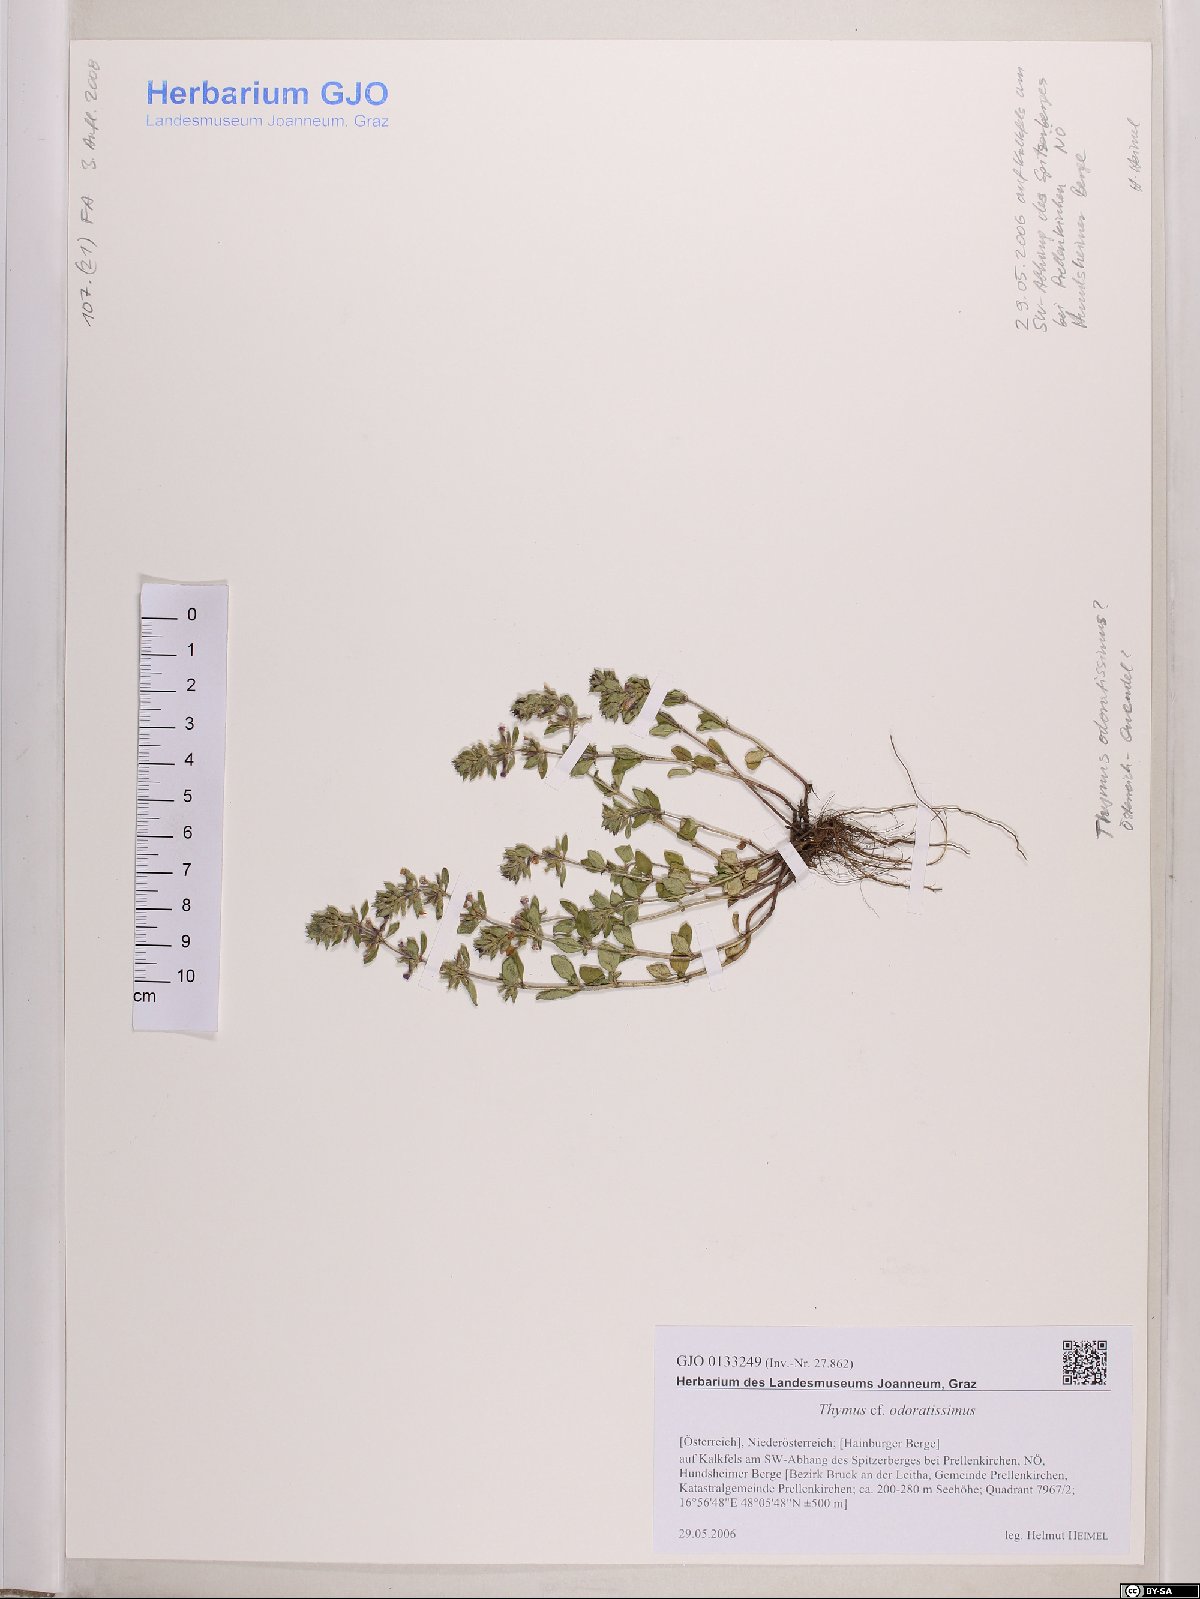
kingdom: Plantae
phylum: Tracheophyta
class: Magnoliopsida
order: Lamiales
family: Lamiaceae
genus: Thymus
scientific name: Thymus odoratissimus
